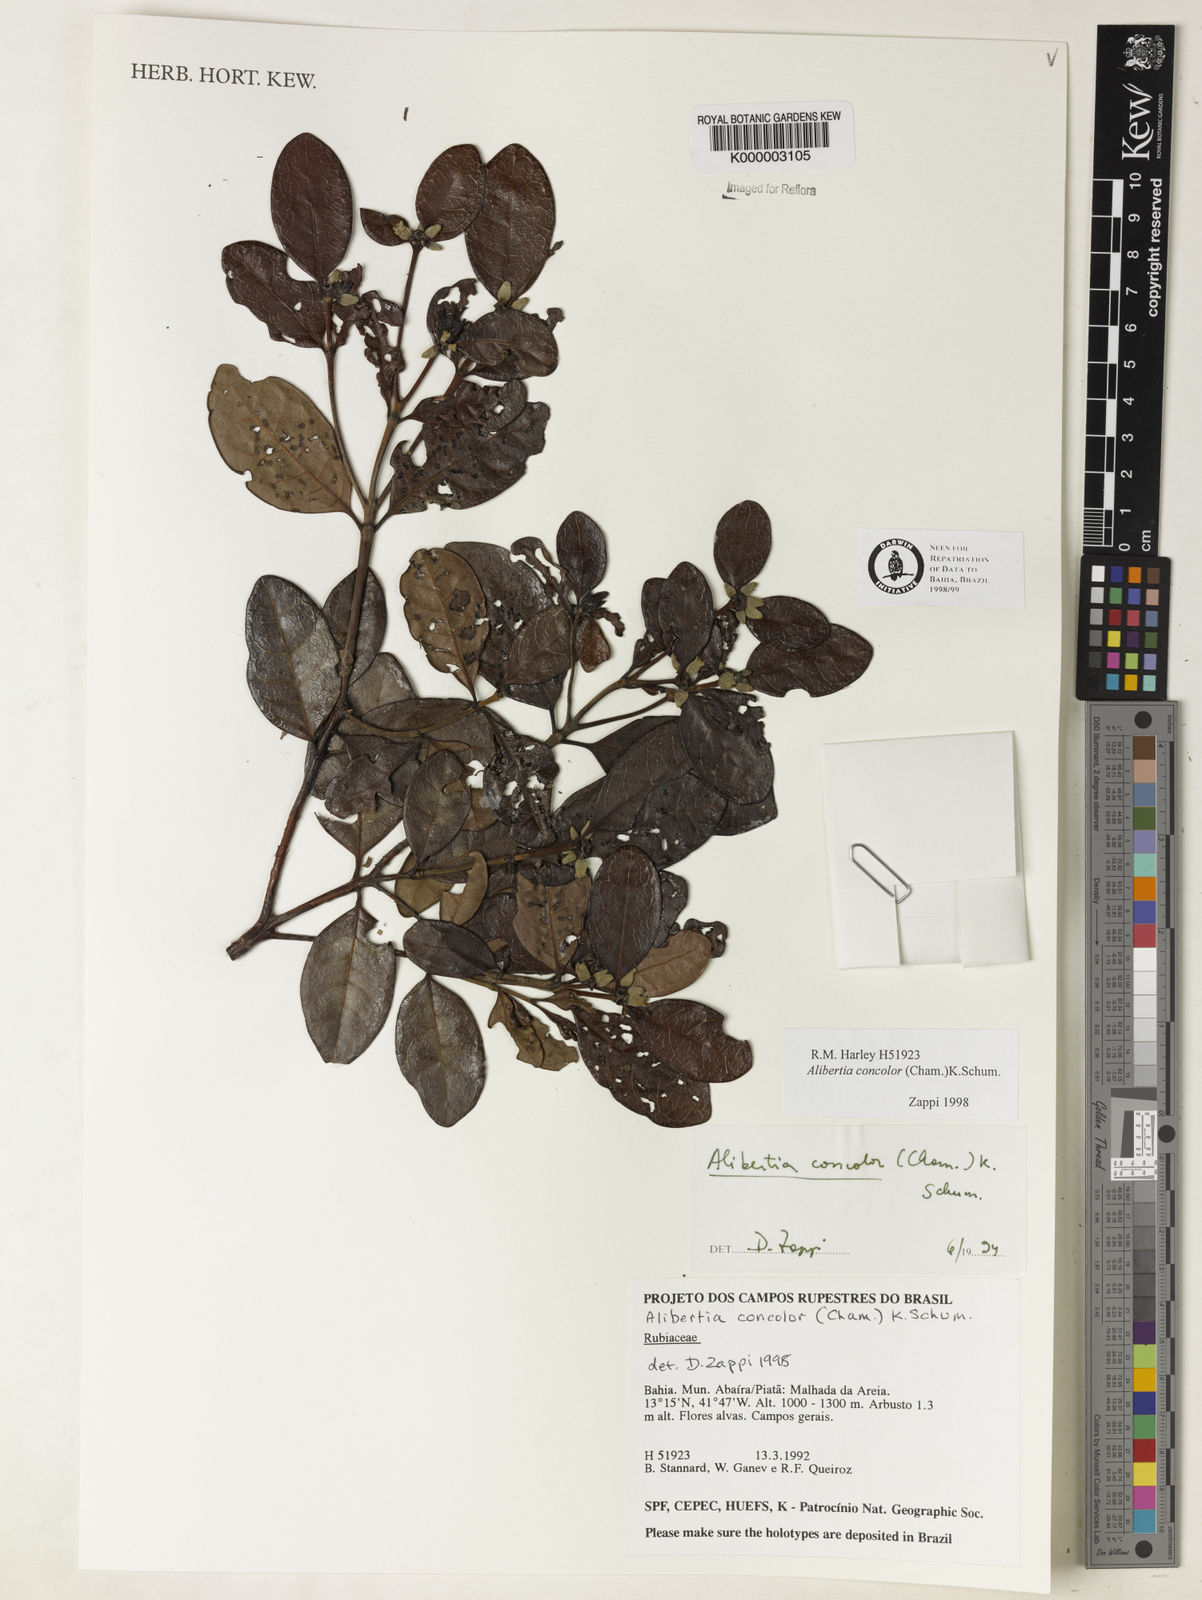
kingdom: Plantae
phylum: Tracheophyta
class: Magnoliopsida
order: Gentianales
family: Rubiaceae
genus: Cordiera
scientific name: Cordiera concolor
